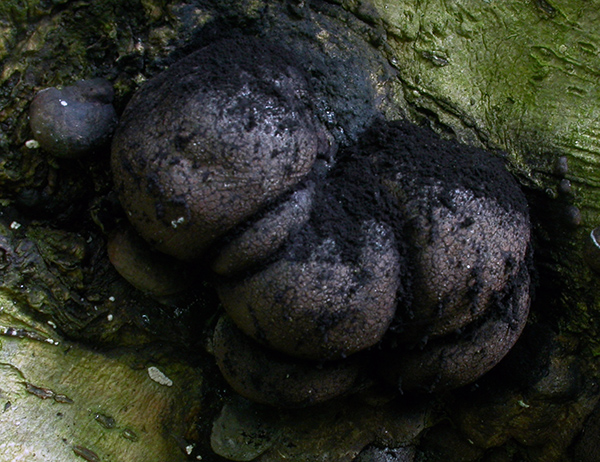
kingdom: Fungi
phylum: Ascomycota
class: Sordariomycetes
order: Xylariales
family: Hypoxylaceae
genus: Daldinia
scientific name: Daldinia concentrica
